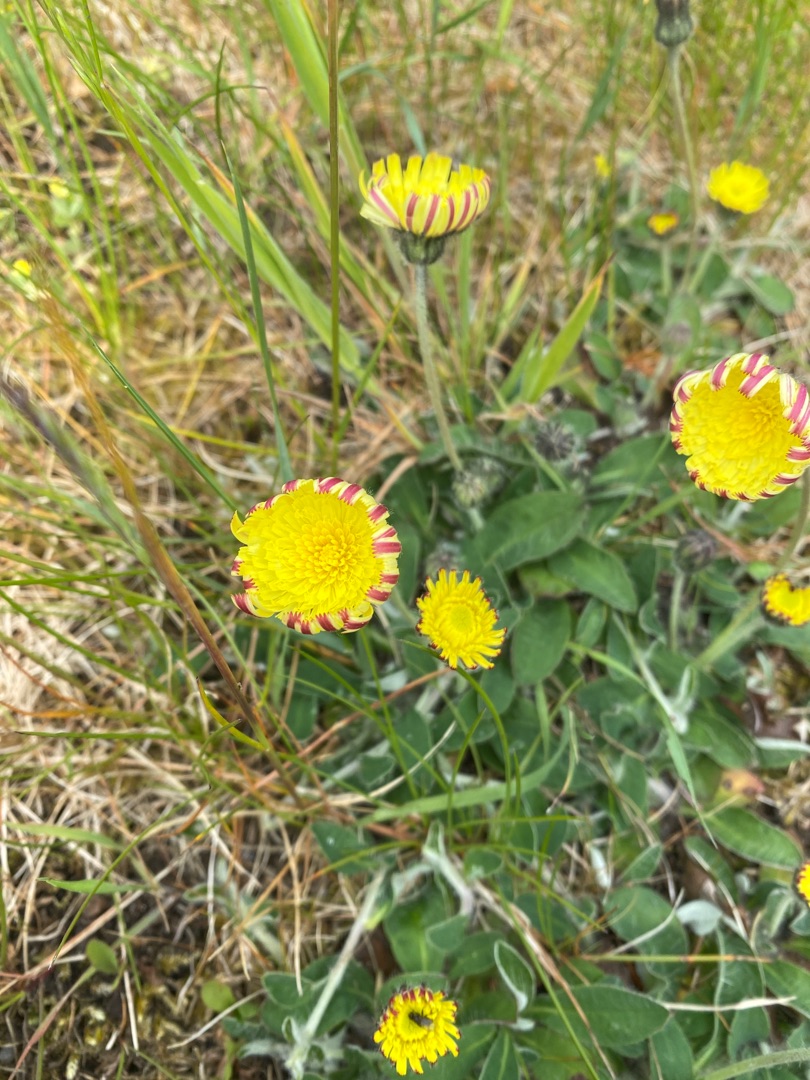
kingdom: Plantae
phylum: Tracheophyta
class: Magnoliopsida
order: Asterales
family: Asteraceae
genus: Pilosella
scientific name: Pilosella officinarum
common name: Håret høgeurt
